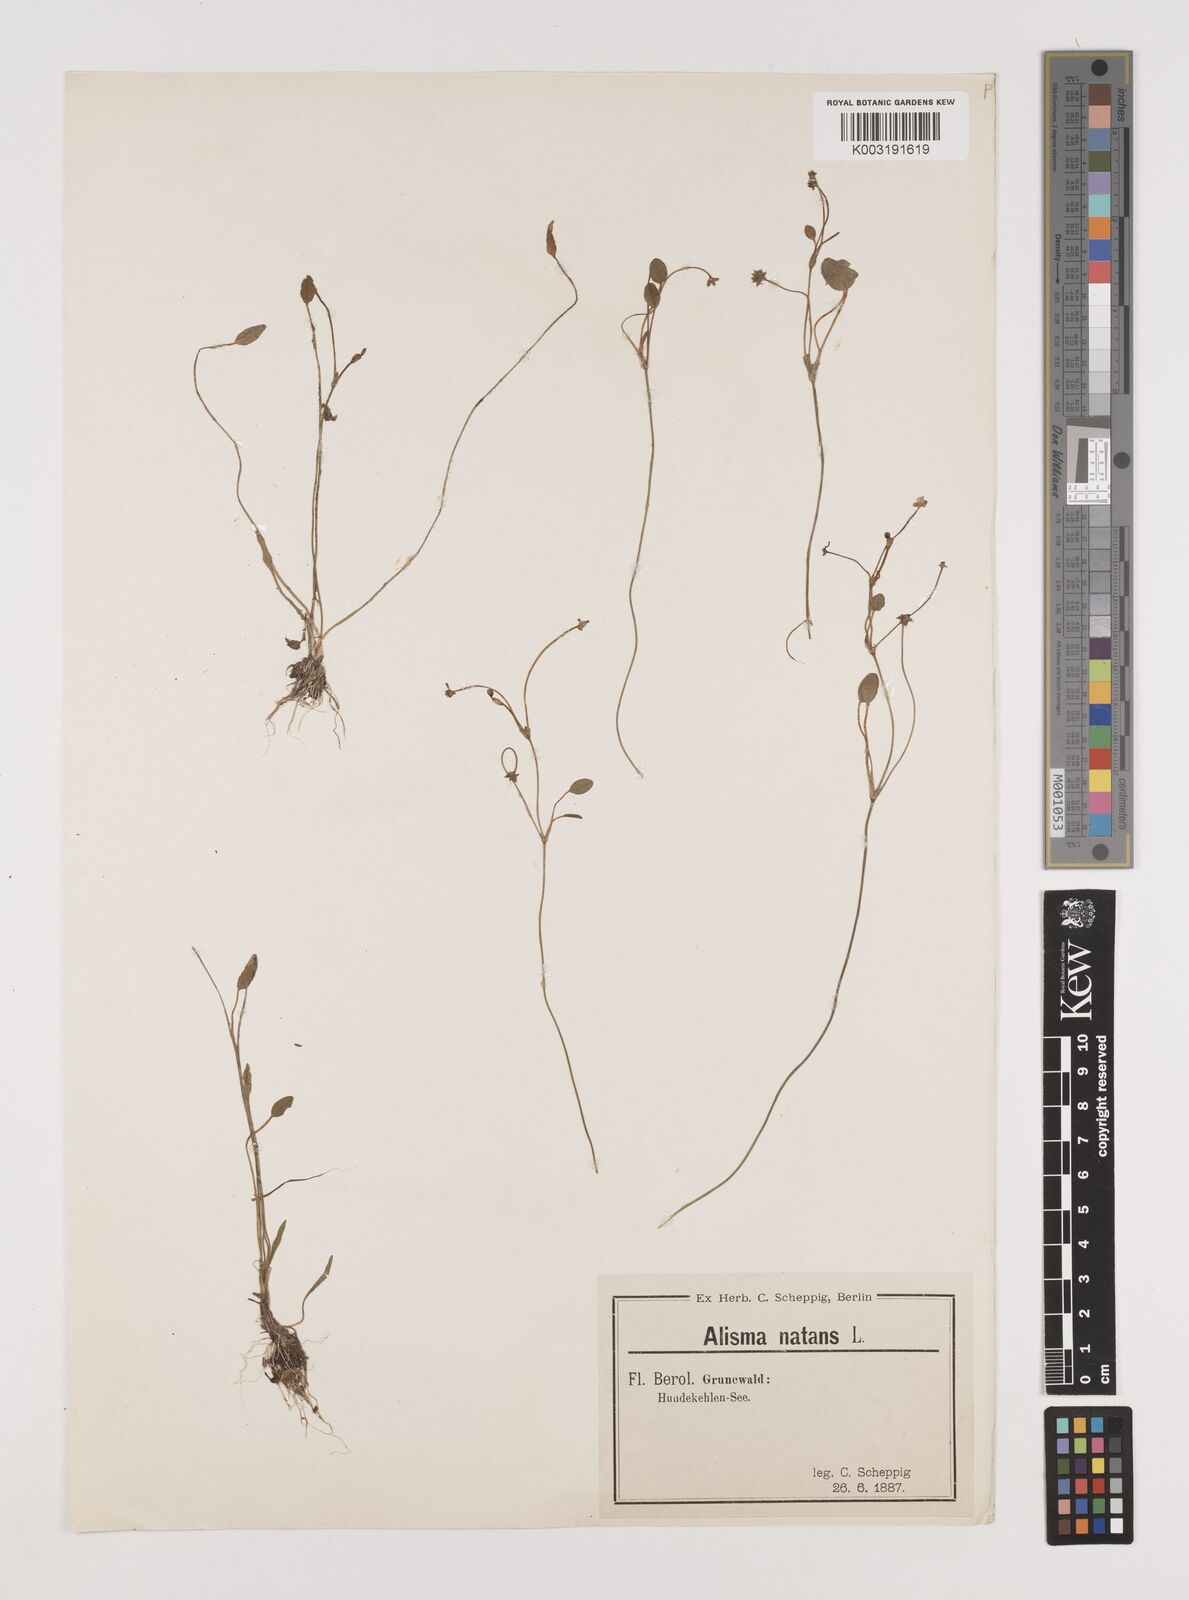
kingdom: Plantae
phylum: Tracheophyta
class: Liliopsida
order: Alismatales
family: Alismataceae
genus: Luronium
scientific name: Luronium natans
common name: Floating water-plantain
